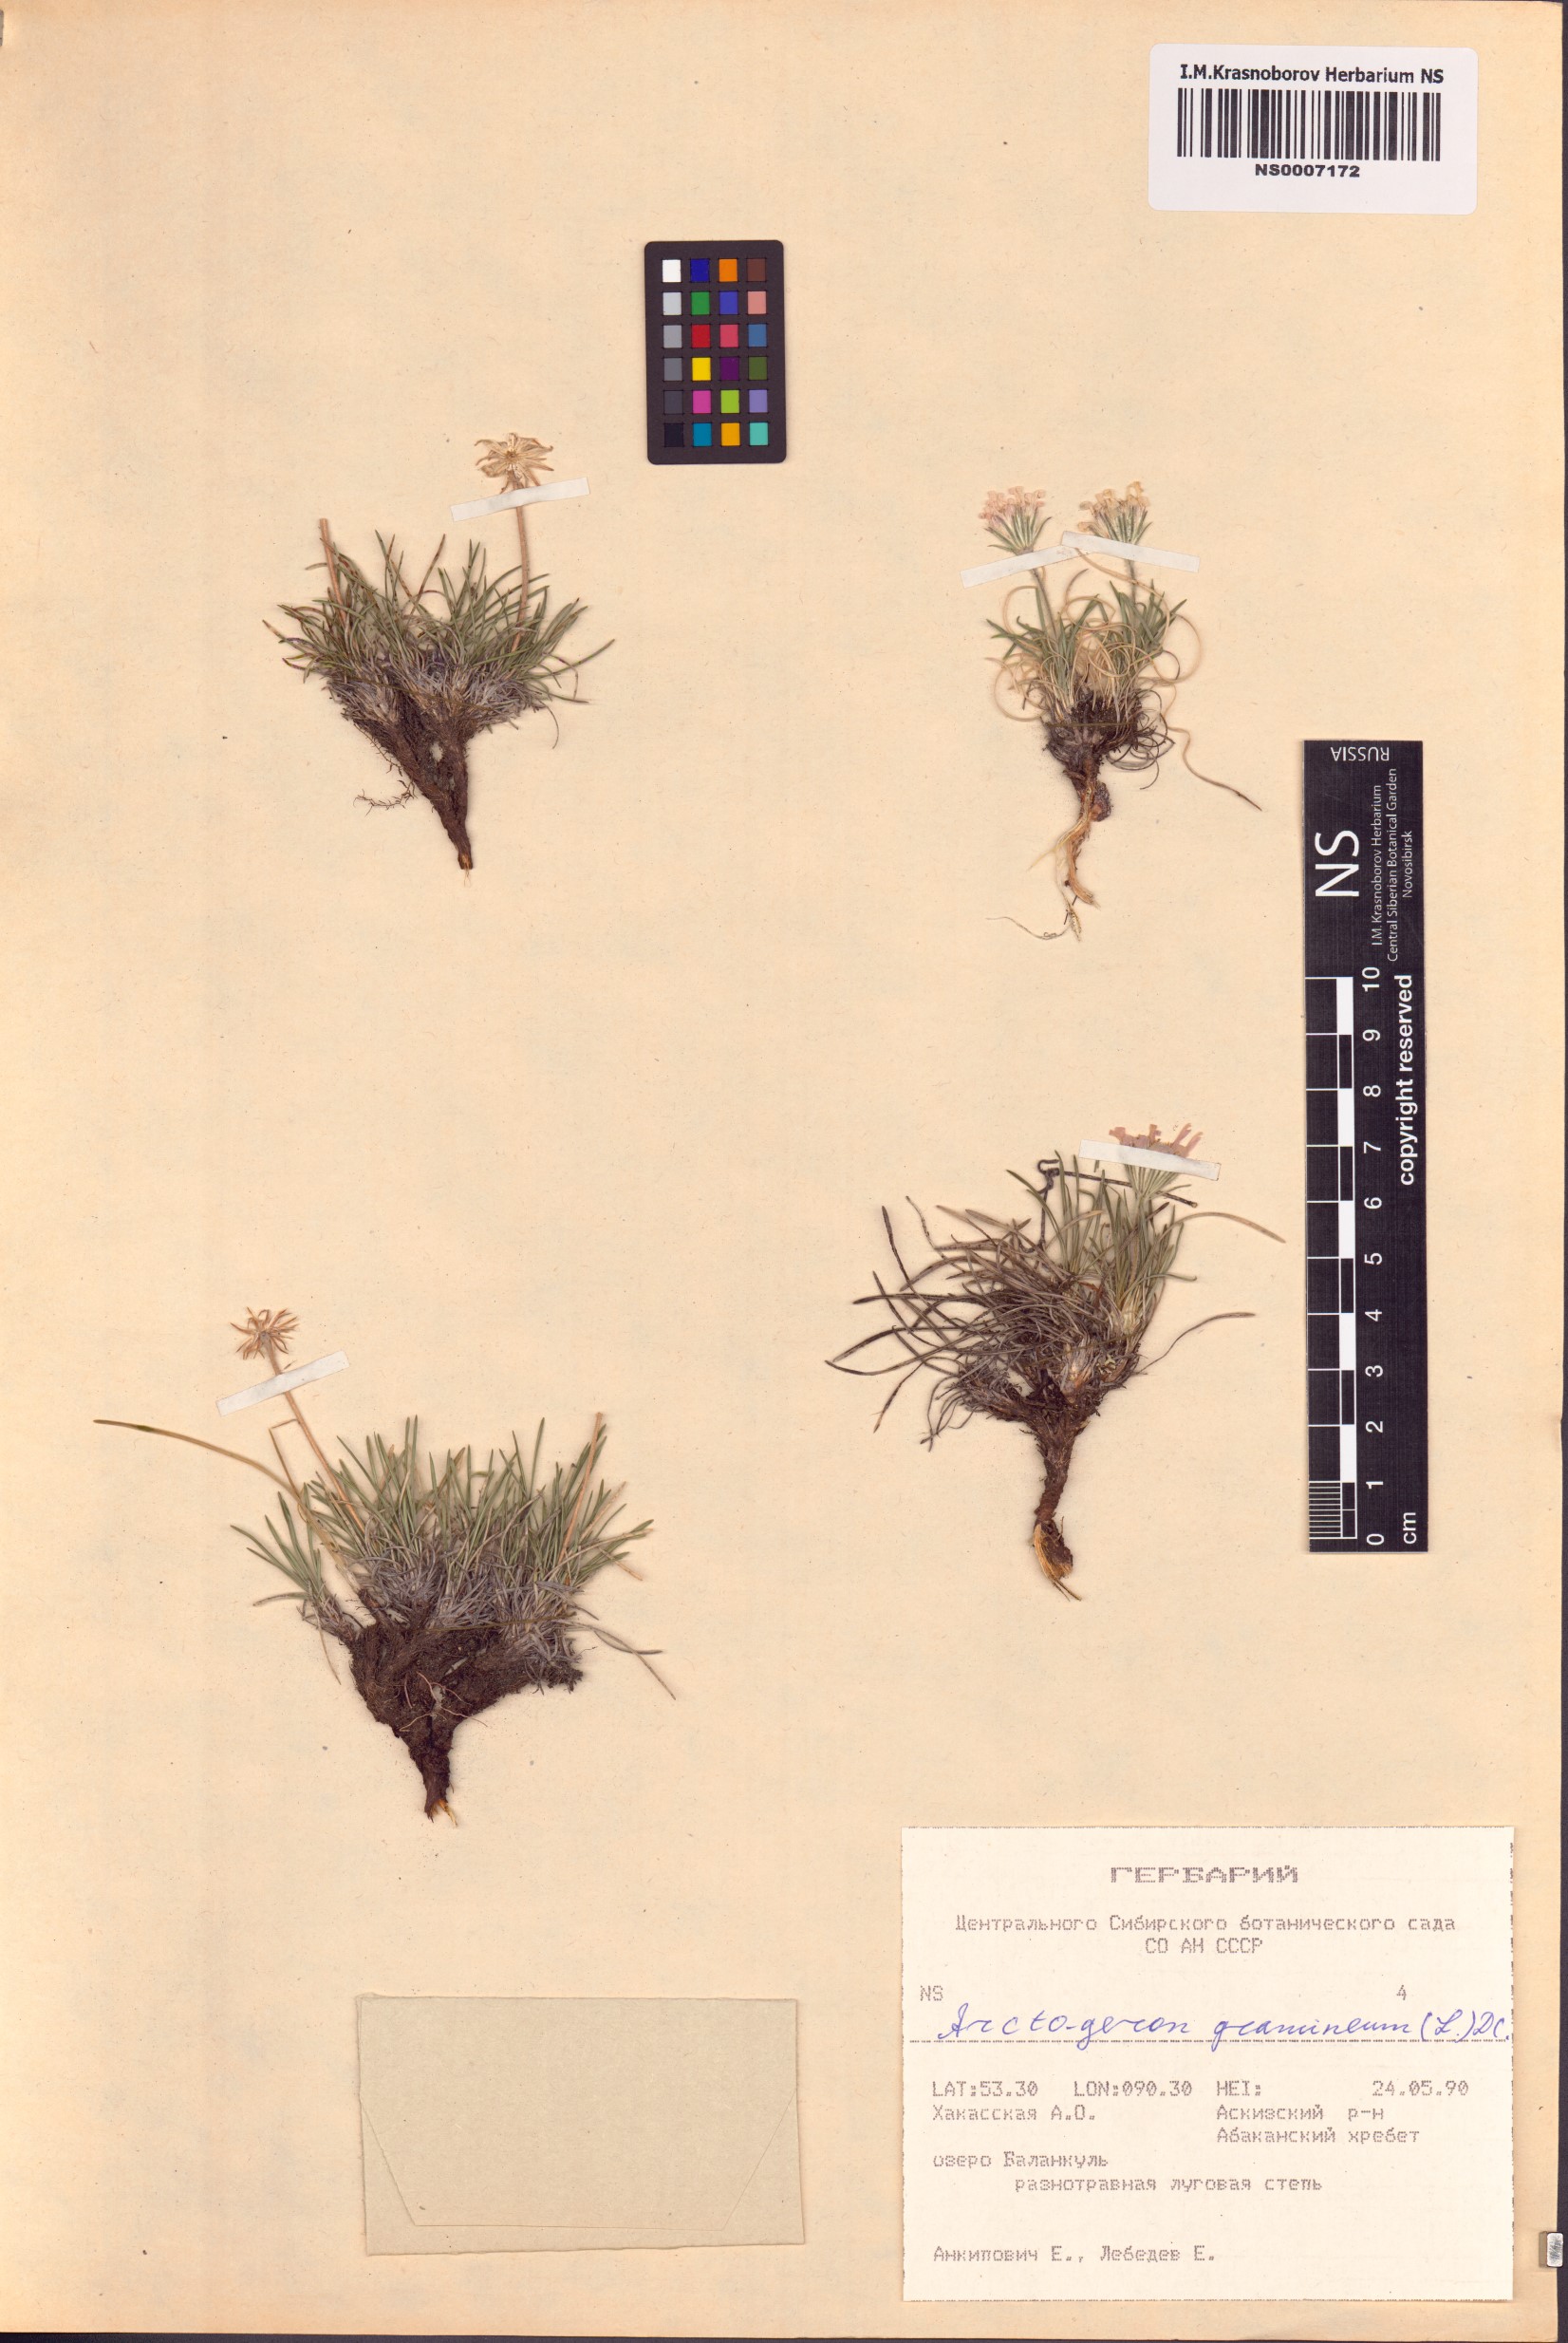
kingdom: Plantae
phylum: Tracheophyta
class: Magnoliopsida
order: Asterales
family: Asteraceae
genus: Arctogeron
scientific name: Arctogeron gramineum
